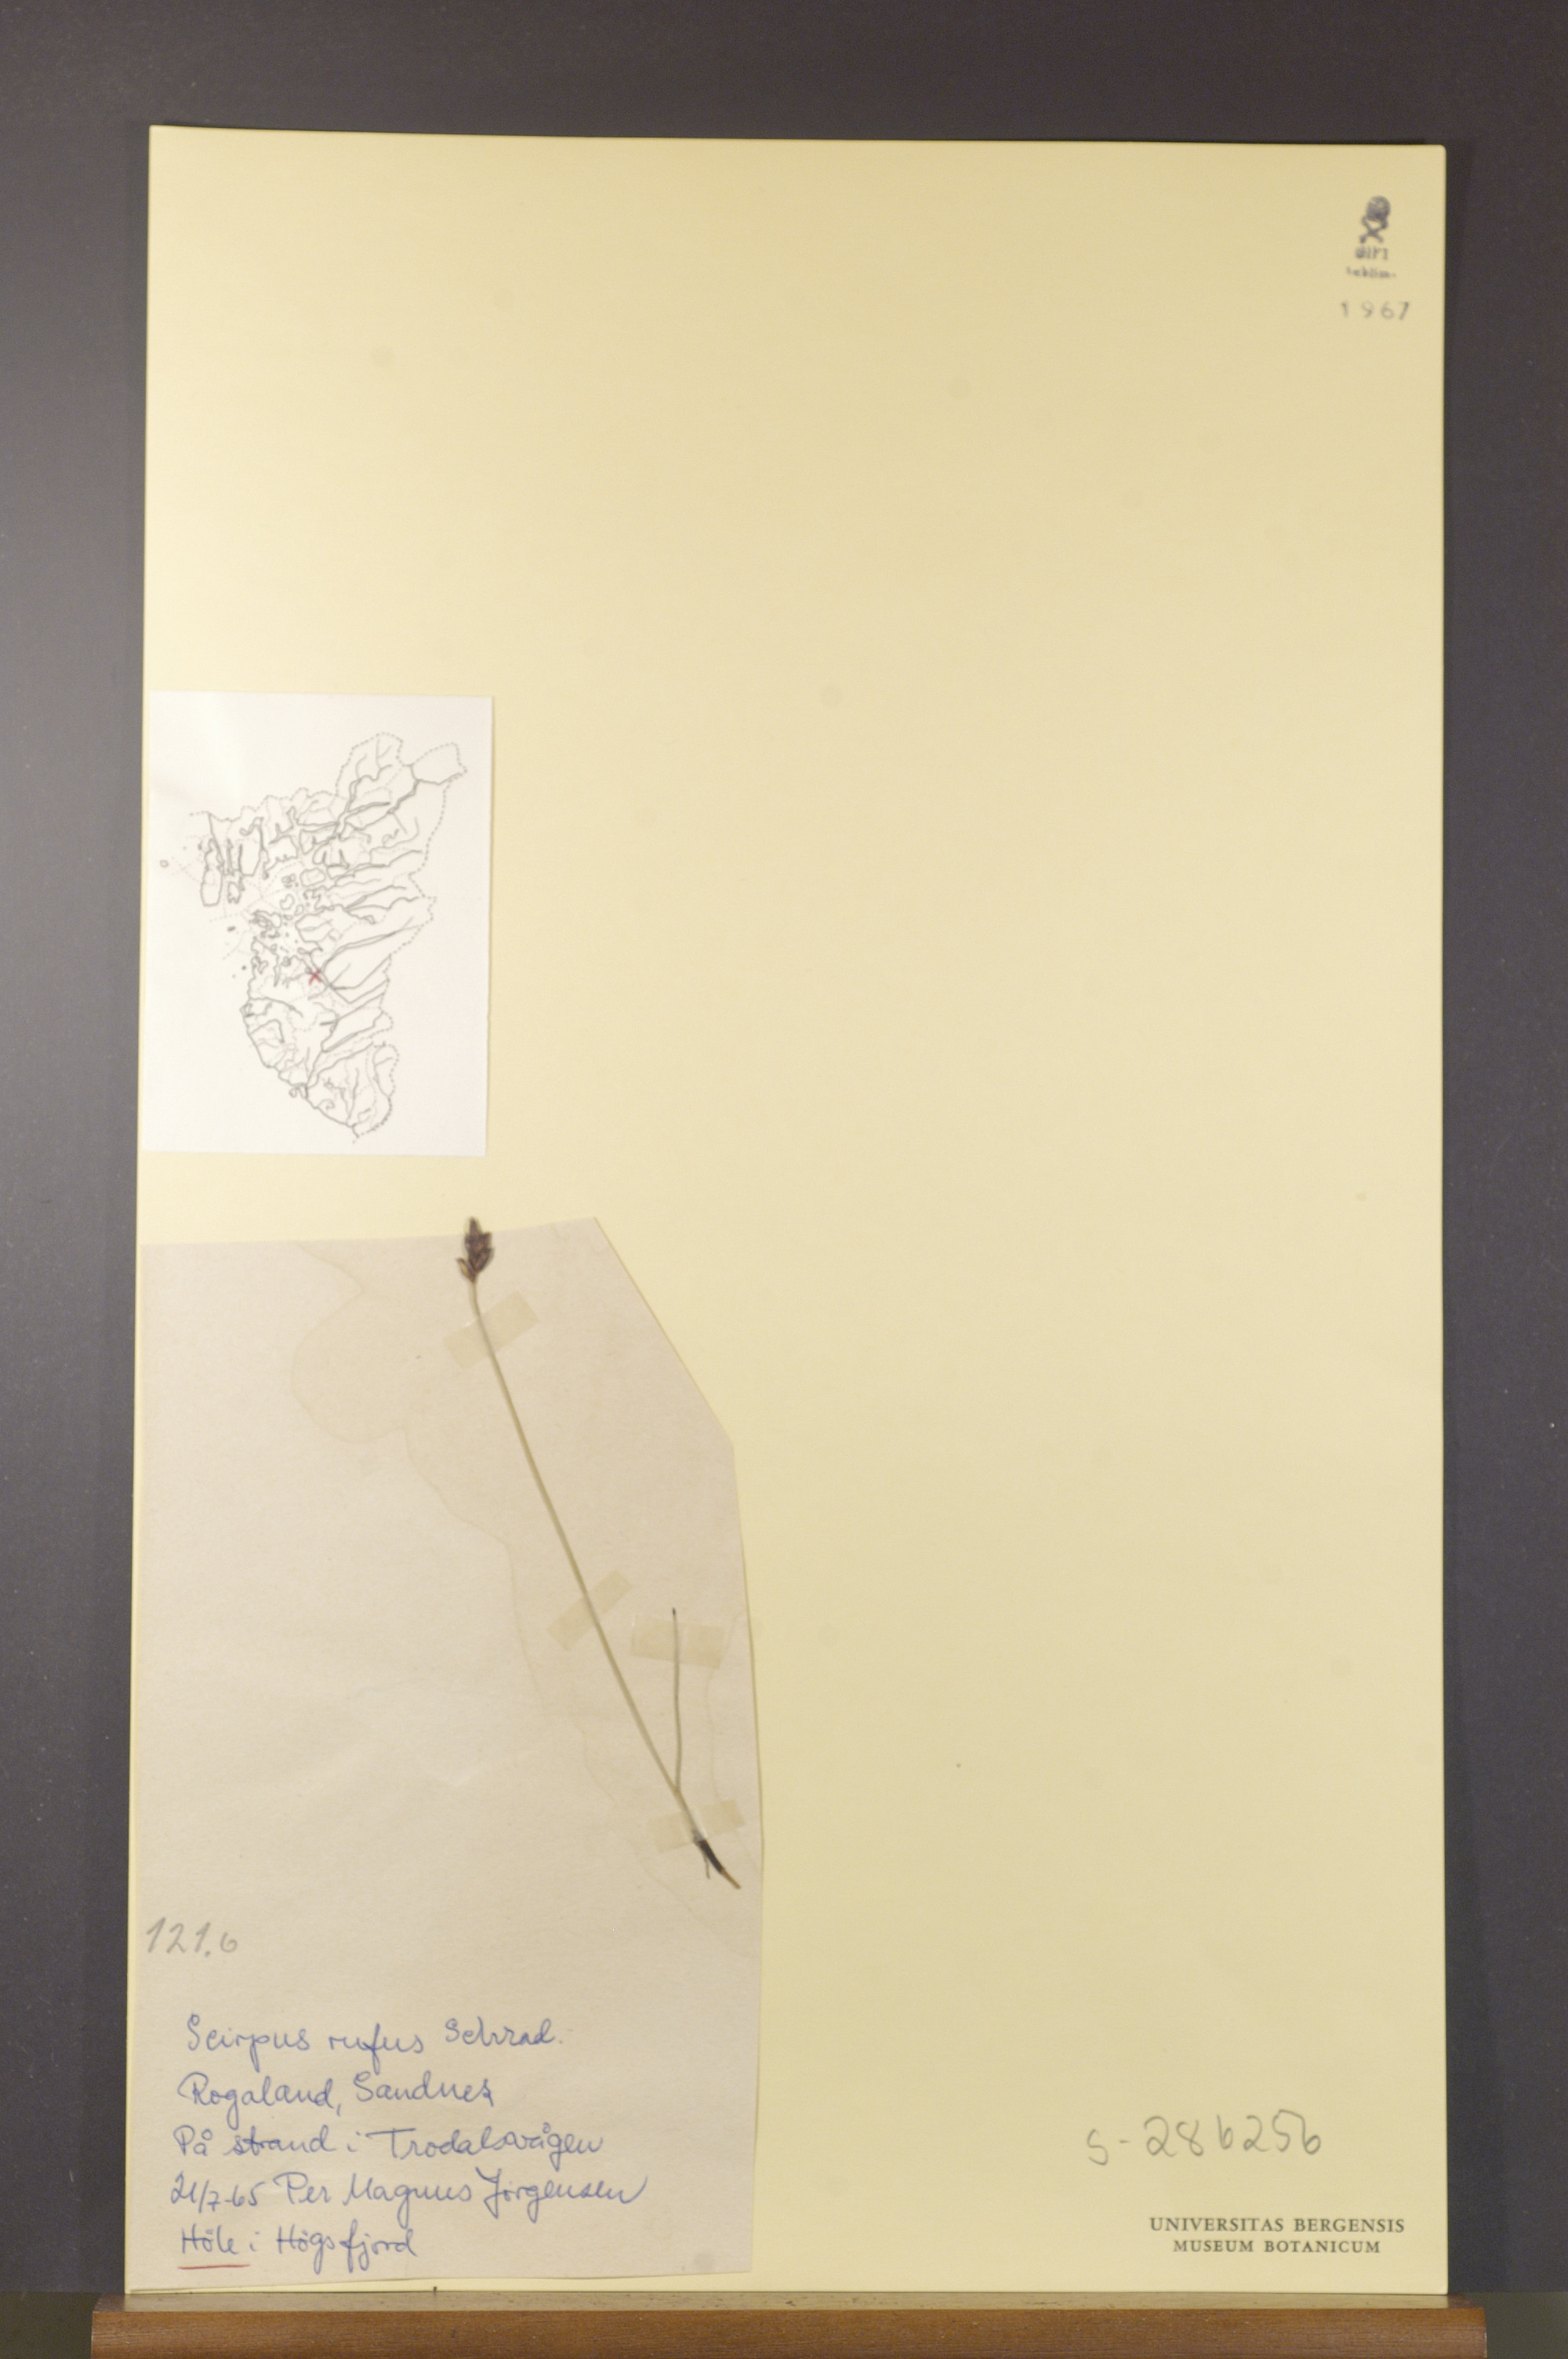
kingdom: Plantae
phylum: Tracheophyta
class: Liliopsida
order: Poales
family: Cyperaceae
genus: Blysmus
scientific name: Blysmus rufus
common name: Saltmarsh flat-sedge
